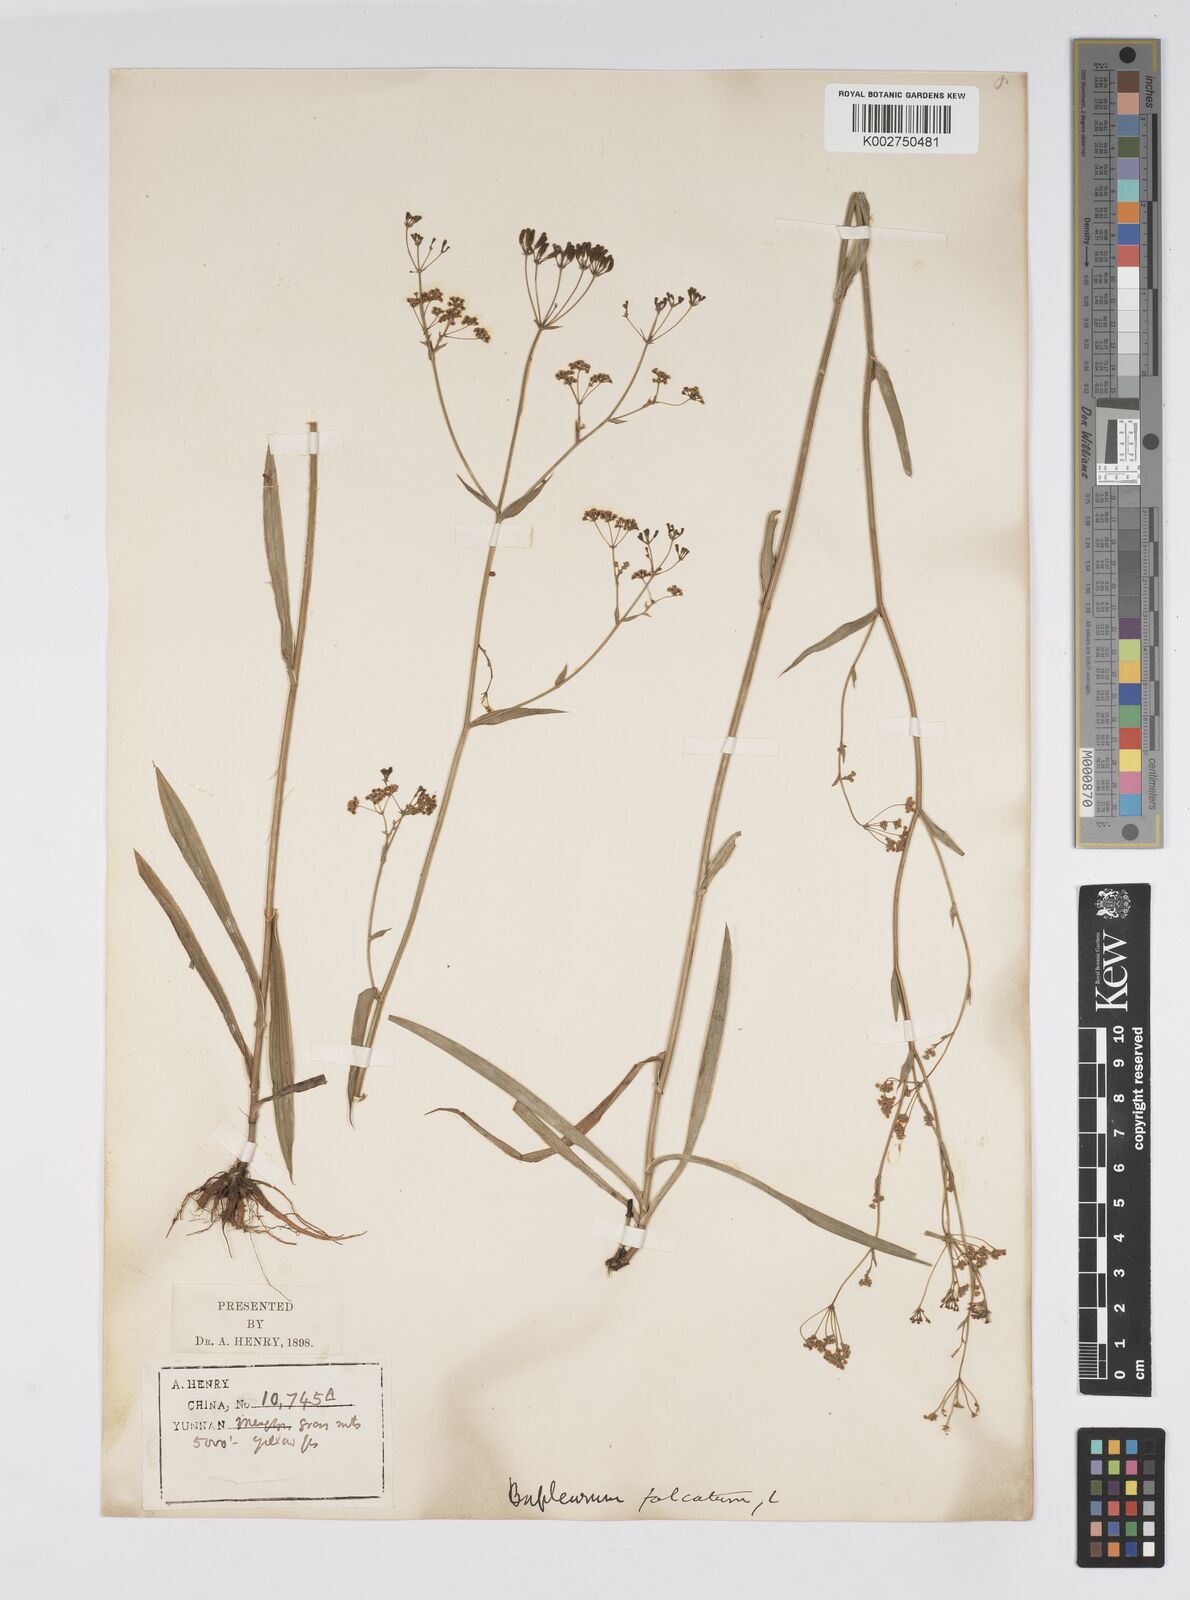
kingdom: Plantae
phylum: Tracheophyta
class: Magnoliopsida
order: Apiales
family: Apiaceae
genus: Bupleurum
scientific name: Bupleurum krylovianum
